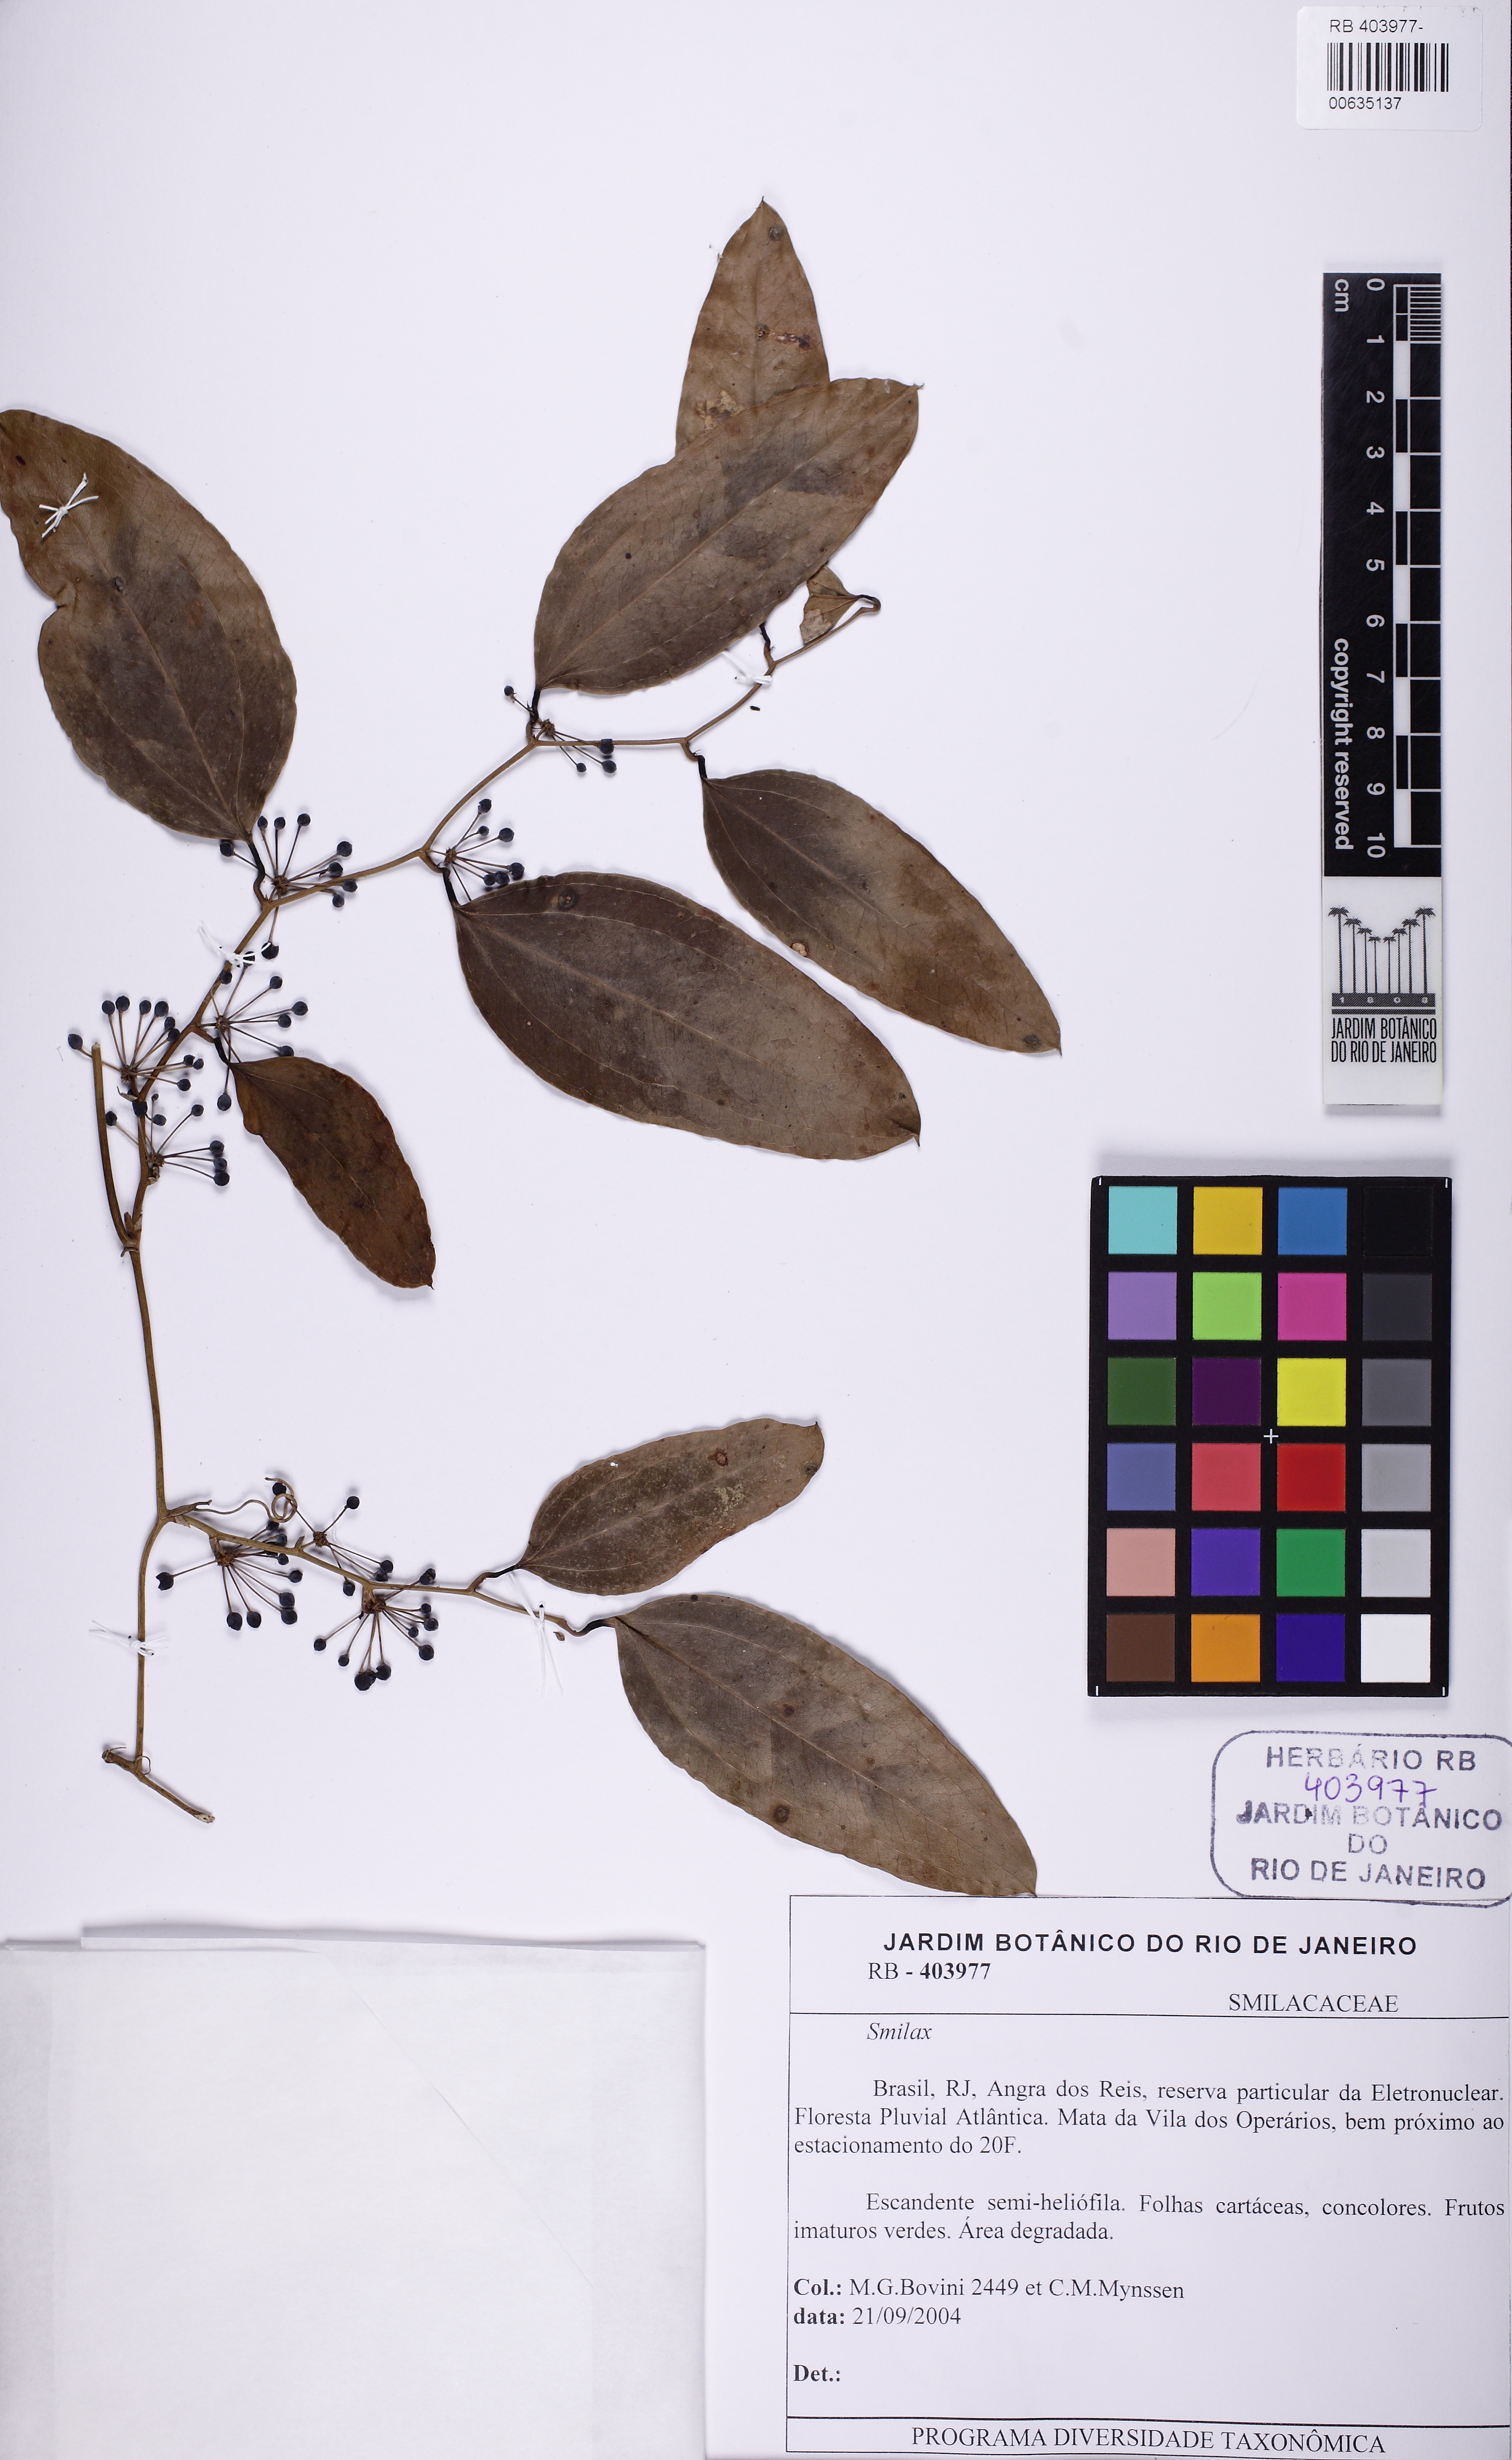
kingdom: Plantae
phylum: Tracheophyta
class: Liliopsida
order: Liliales
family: Smilacaceae
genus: Smilax
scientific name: Smilax
